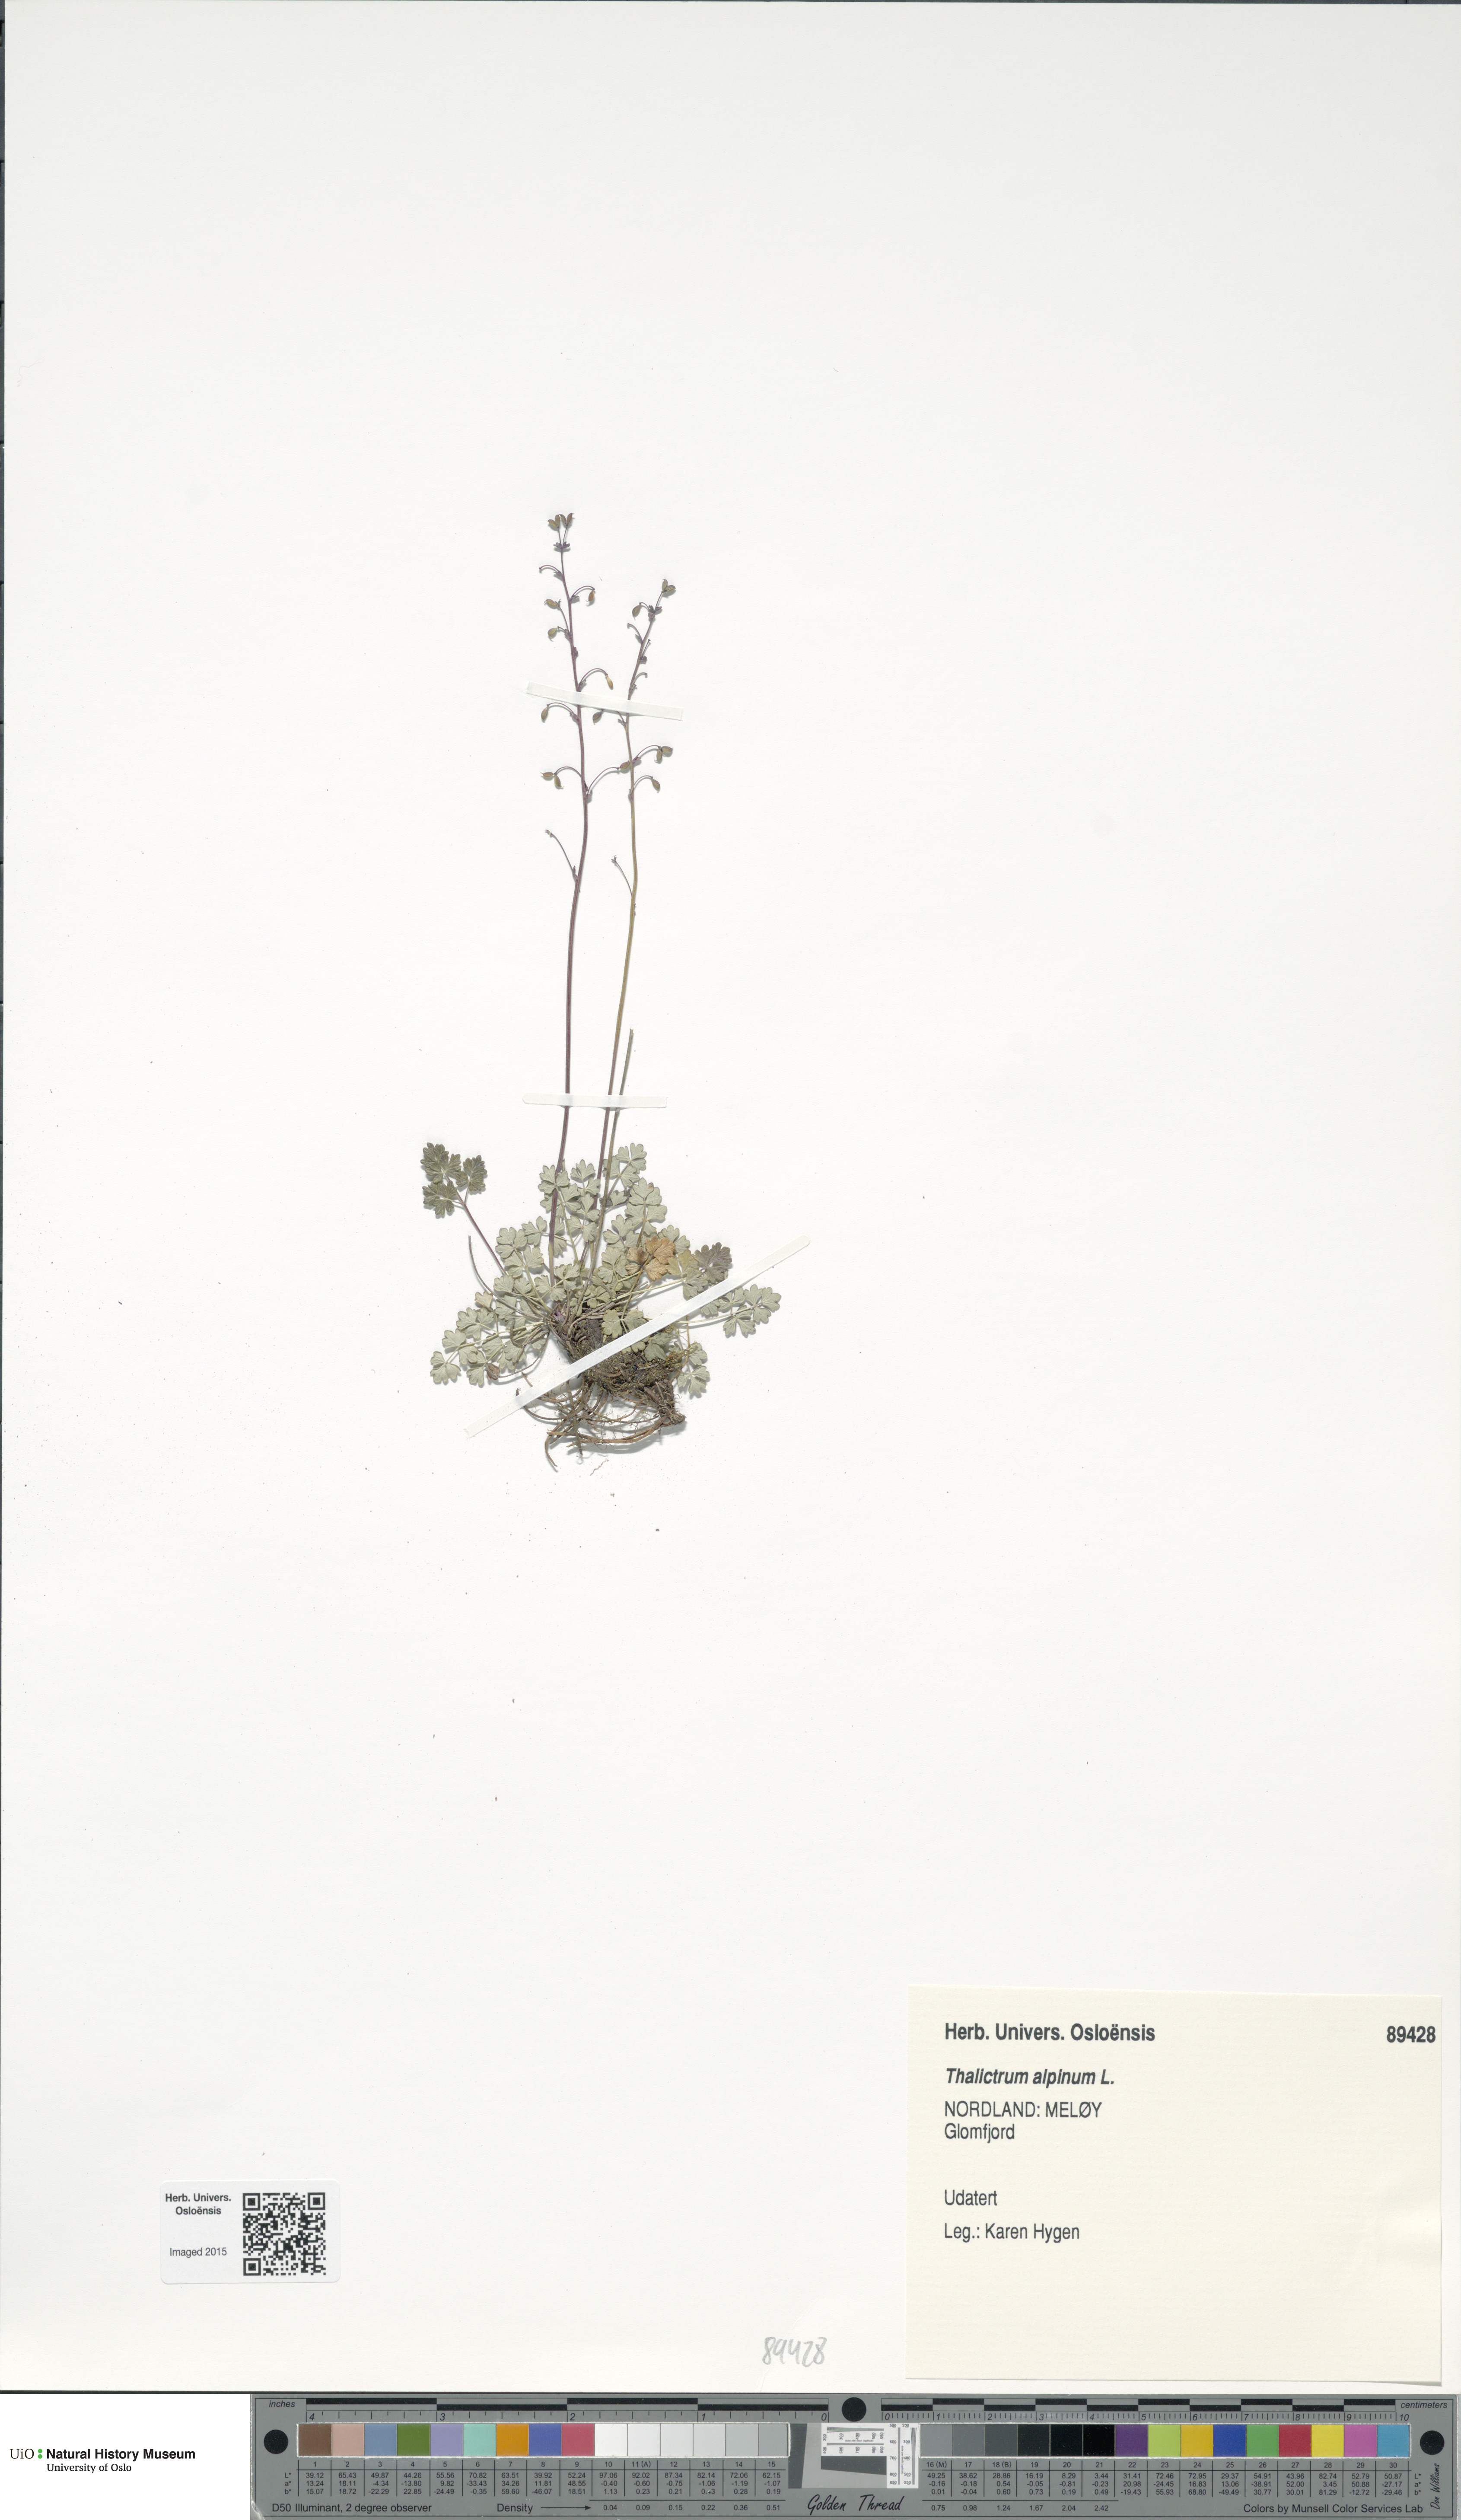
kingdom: Plantae
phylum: Tracheophyta
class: Magnoliopsida
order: Ranunculales
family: Ranunculaceae
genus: Thalictrum
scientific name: Thalictrum alpinum
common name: Alpine meadow-rue
